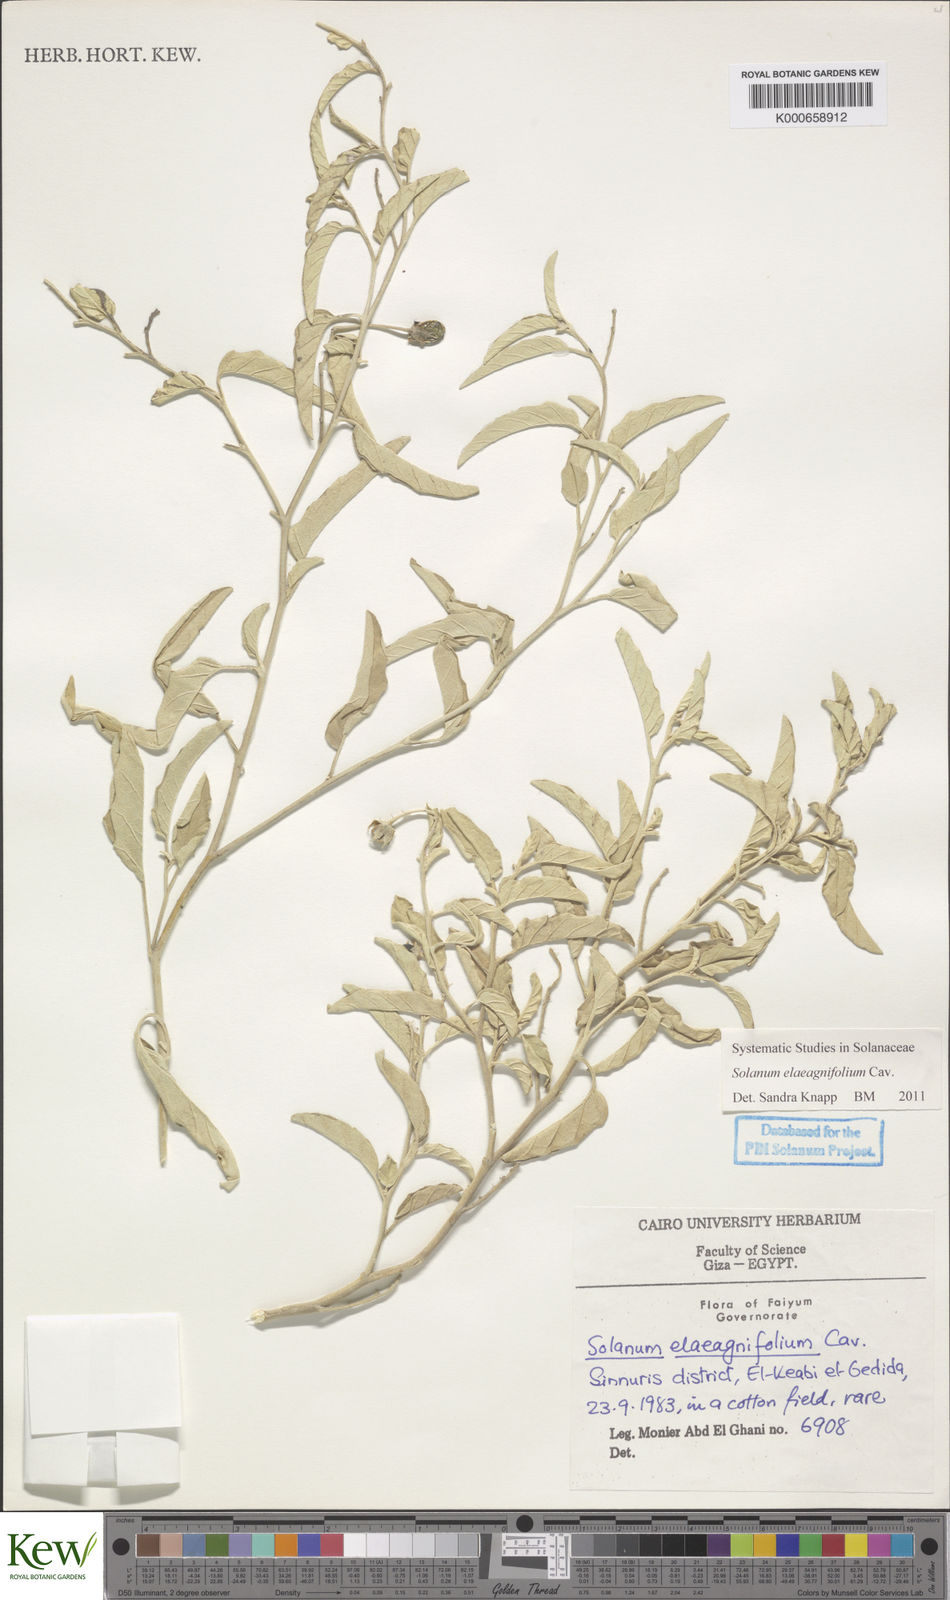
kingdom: Plantae
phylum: Tracheophyta
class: Magnoliopsida
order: Solanales
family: Solanaceae
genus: Solanum
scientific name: Solanum elaeagnifolium
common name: Silverleaf nightshade
